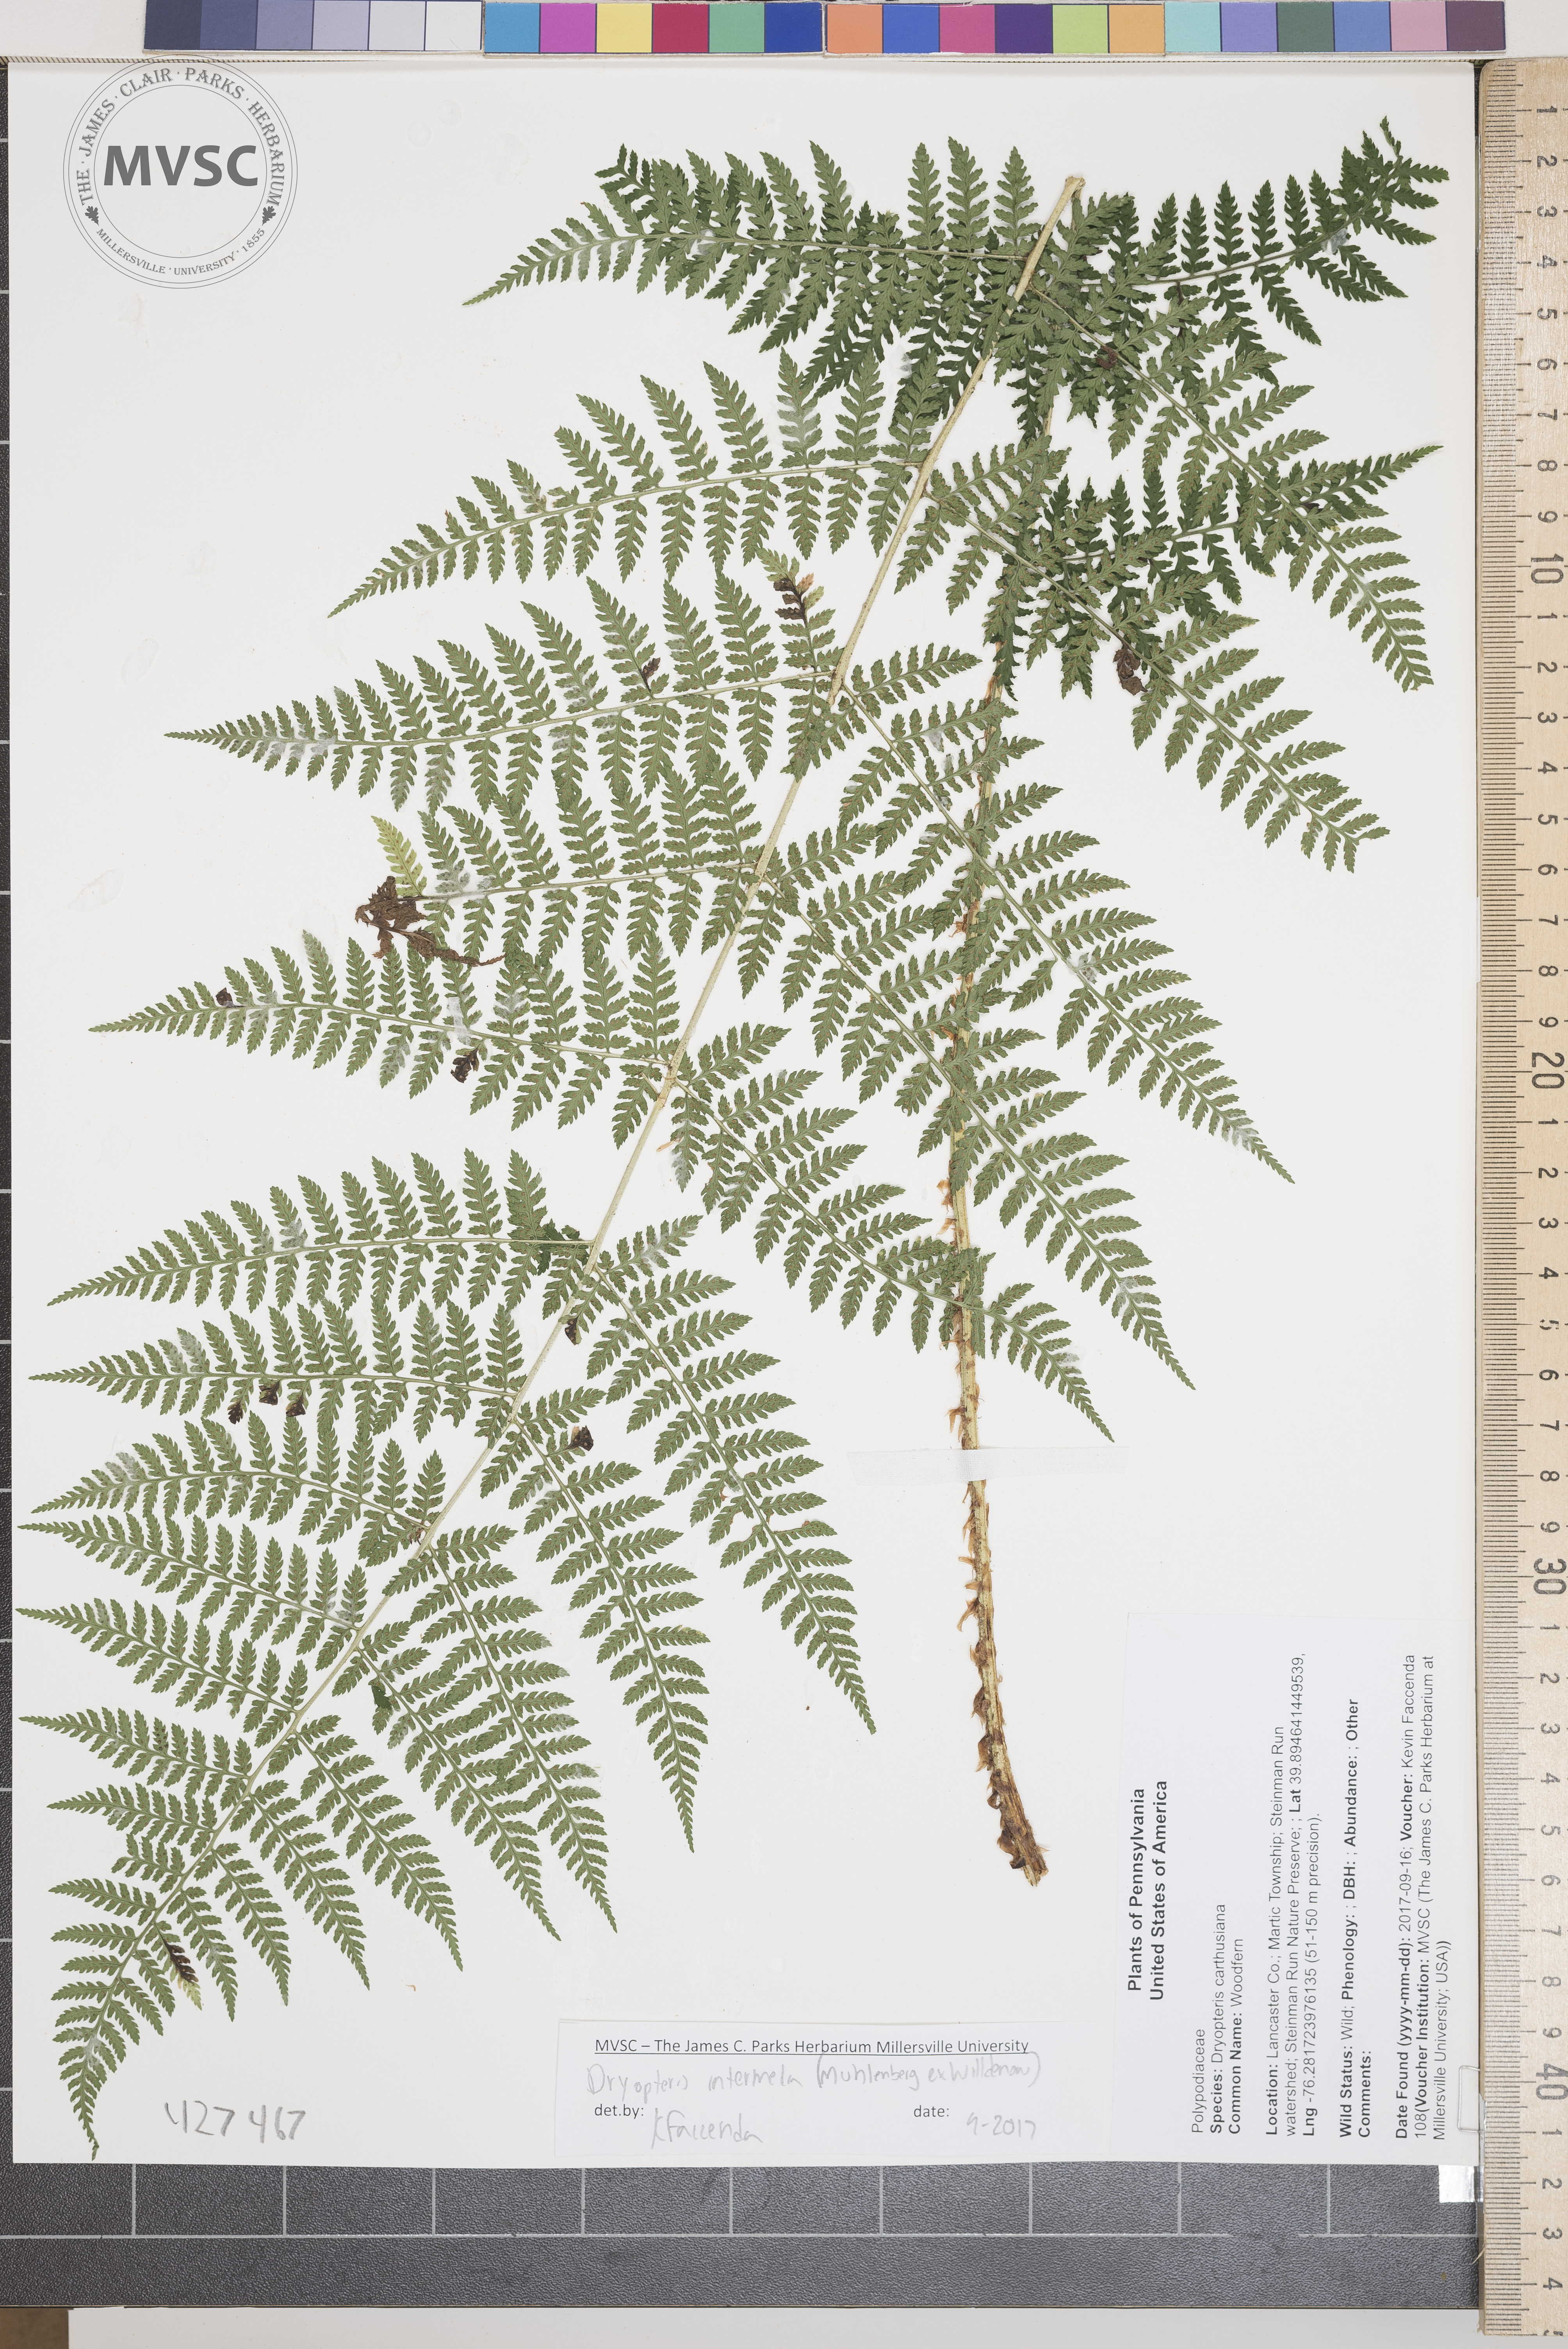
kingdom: Plantae
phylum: Tracheophyta
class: Polypodiopsida
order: Polypodiales
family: Dryopteridaceae
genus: Dryopteris
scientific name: Dryopteris intermedia
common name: Woodfern
